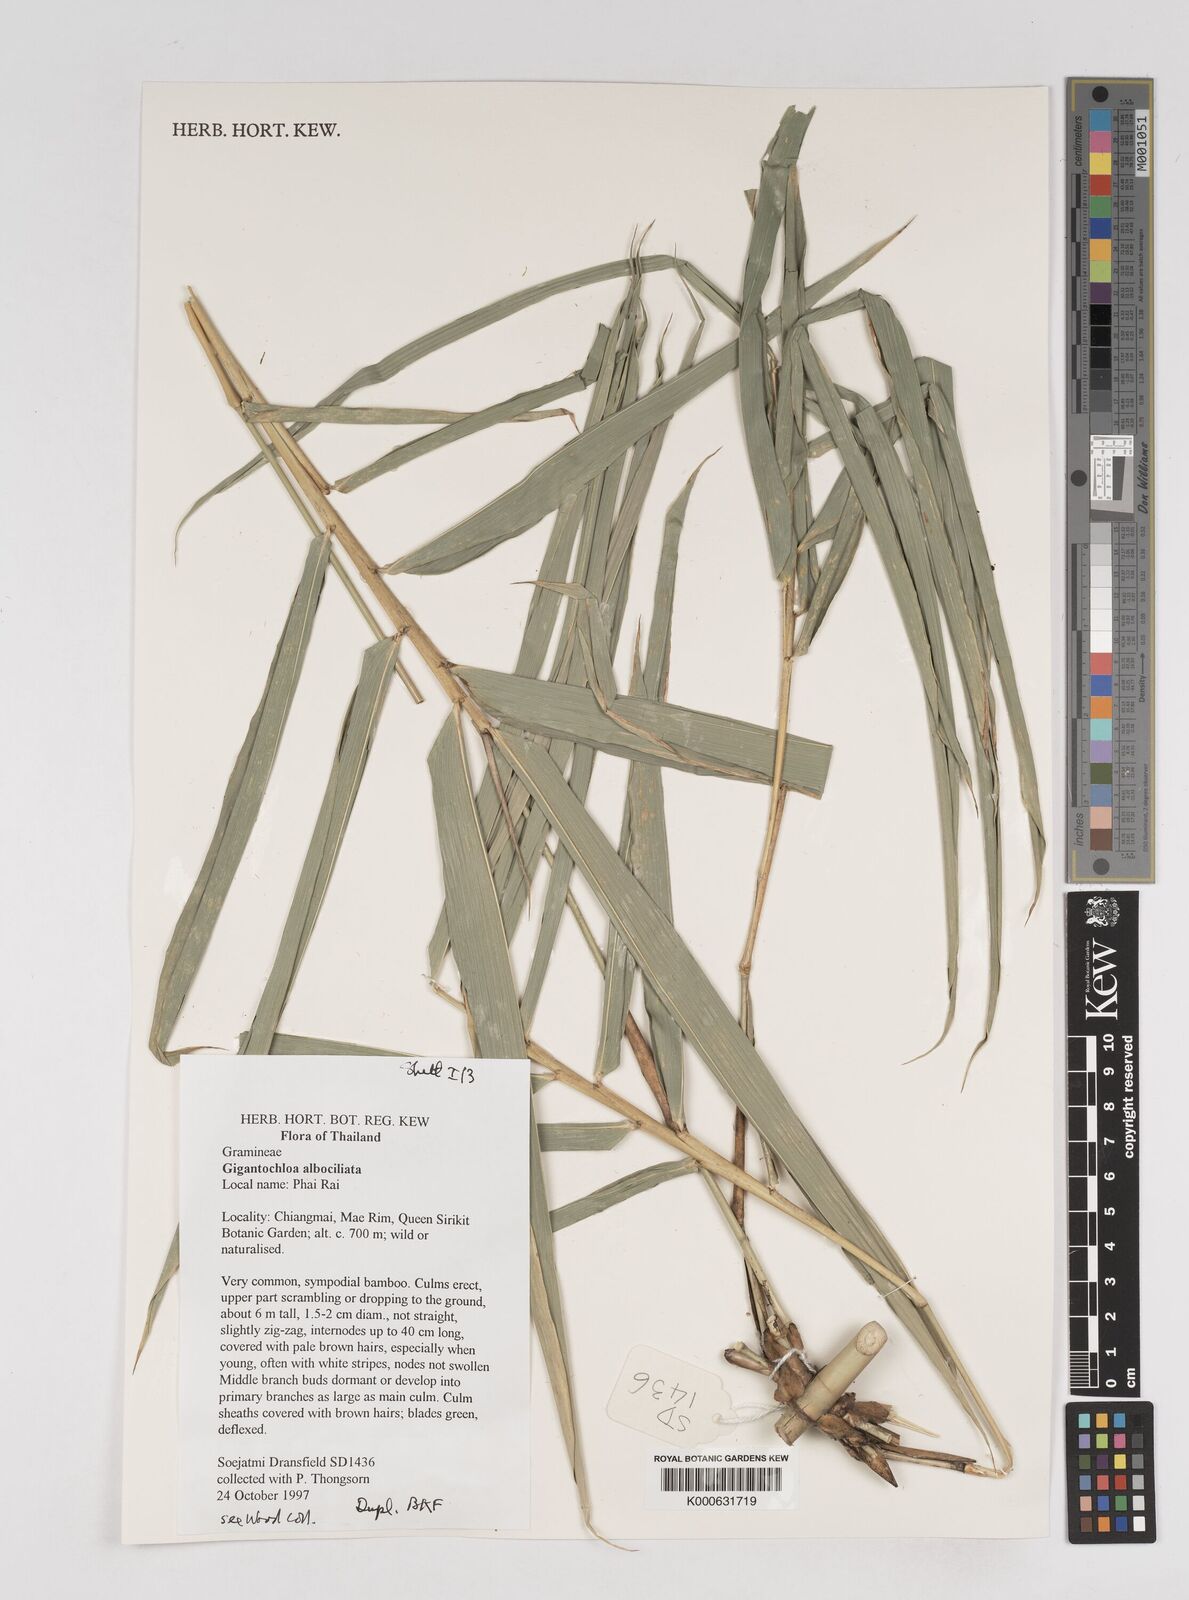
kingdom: Plantae
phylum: Tracheophyta
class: Liliopsida
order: Poales
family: Poaceae
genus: Gigantochloa
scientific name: Gigantochloa albociliata
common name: White-fringe gigantochloa
